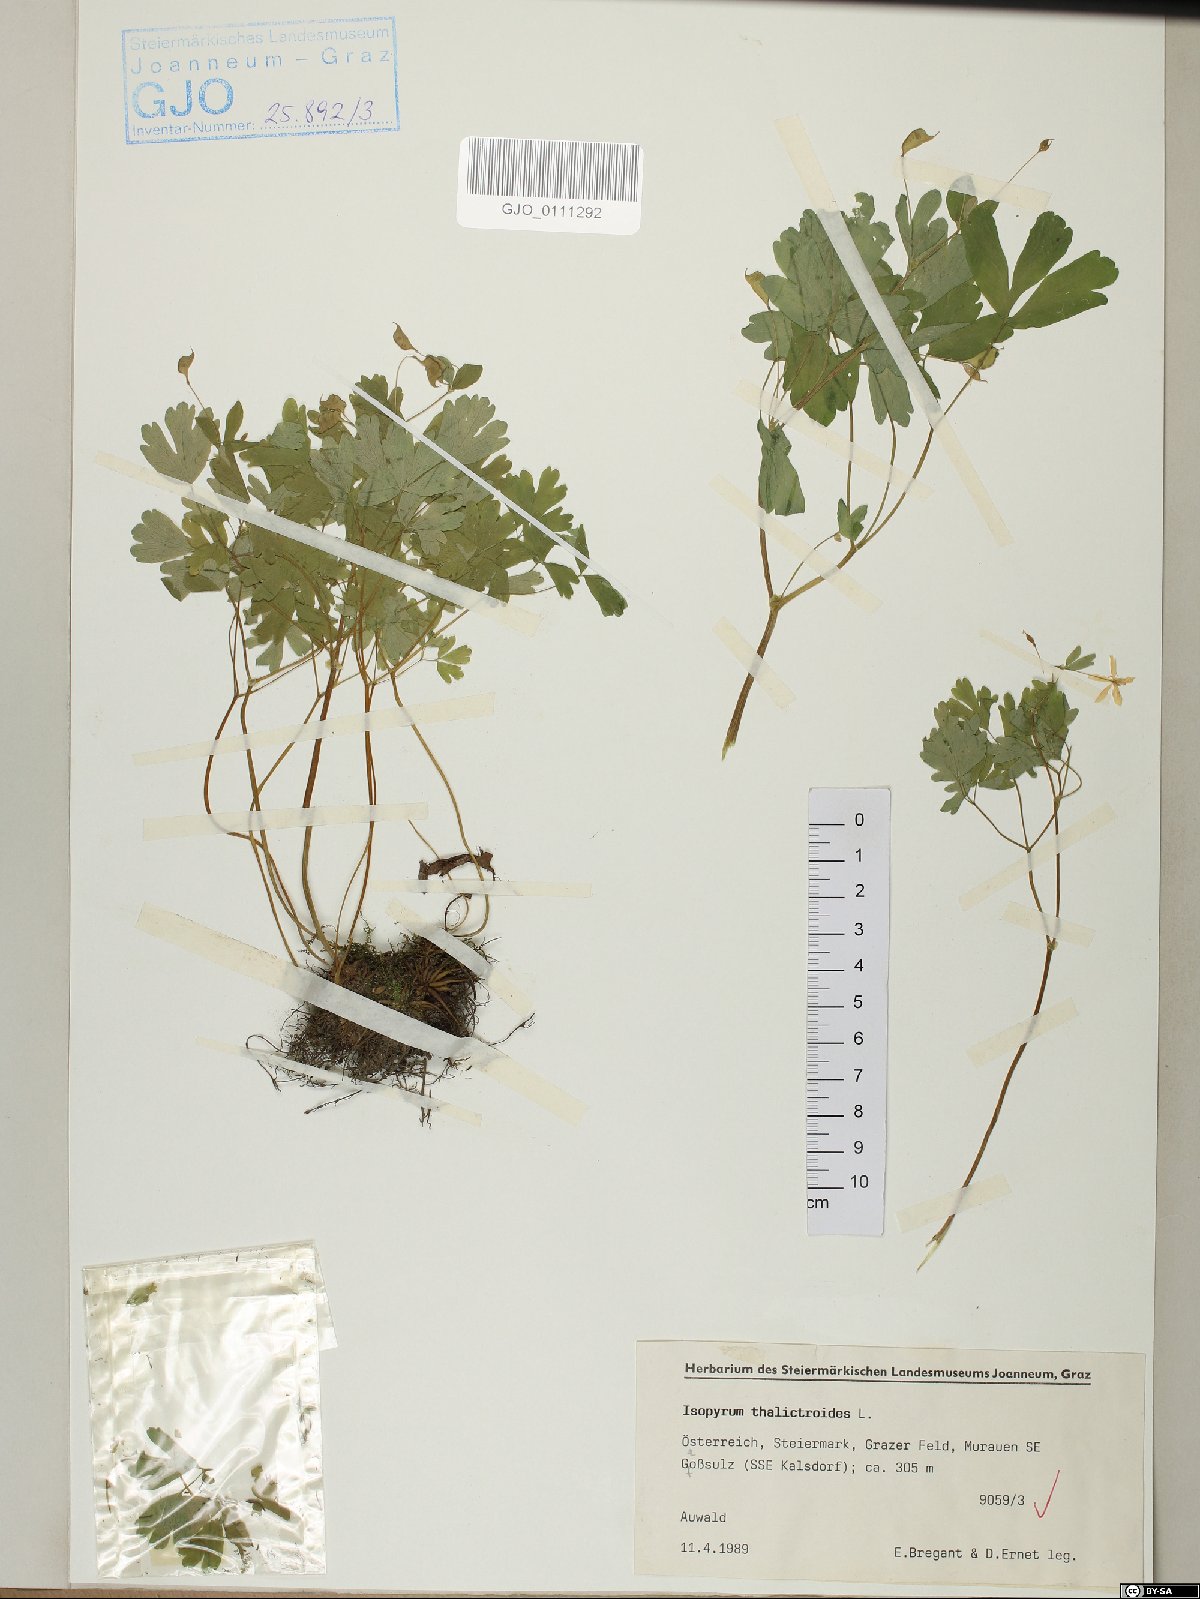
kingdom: Plantae
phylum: Tracheophyta
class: Magnoliopsida
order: Ranunculales
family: Ranunculaceae
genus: Isopyrum
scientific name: Isopyrum thalictroides
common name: Isopyrum
